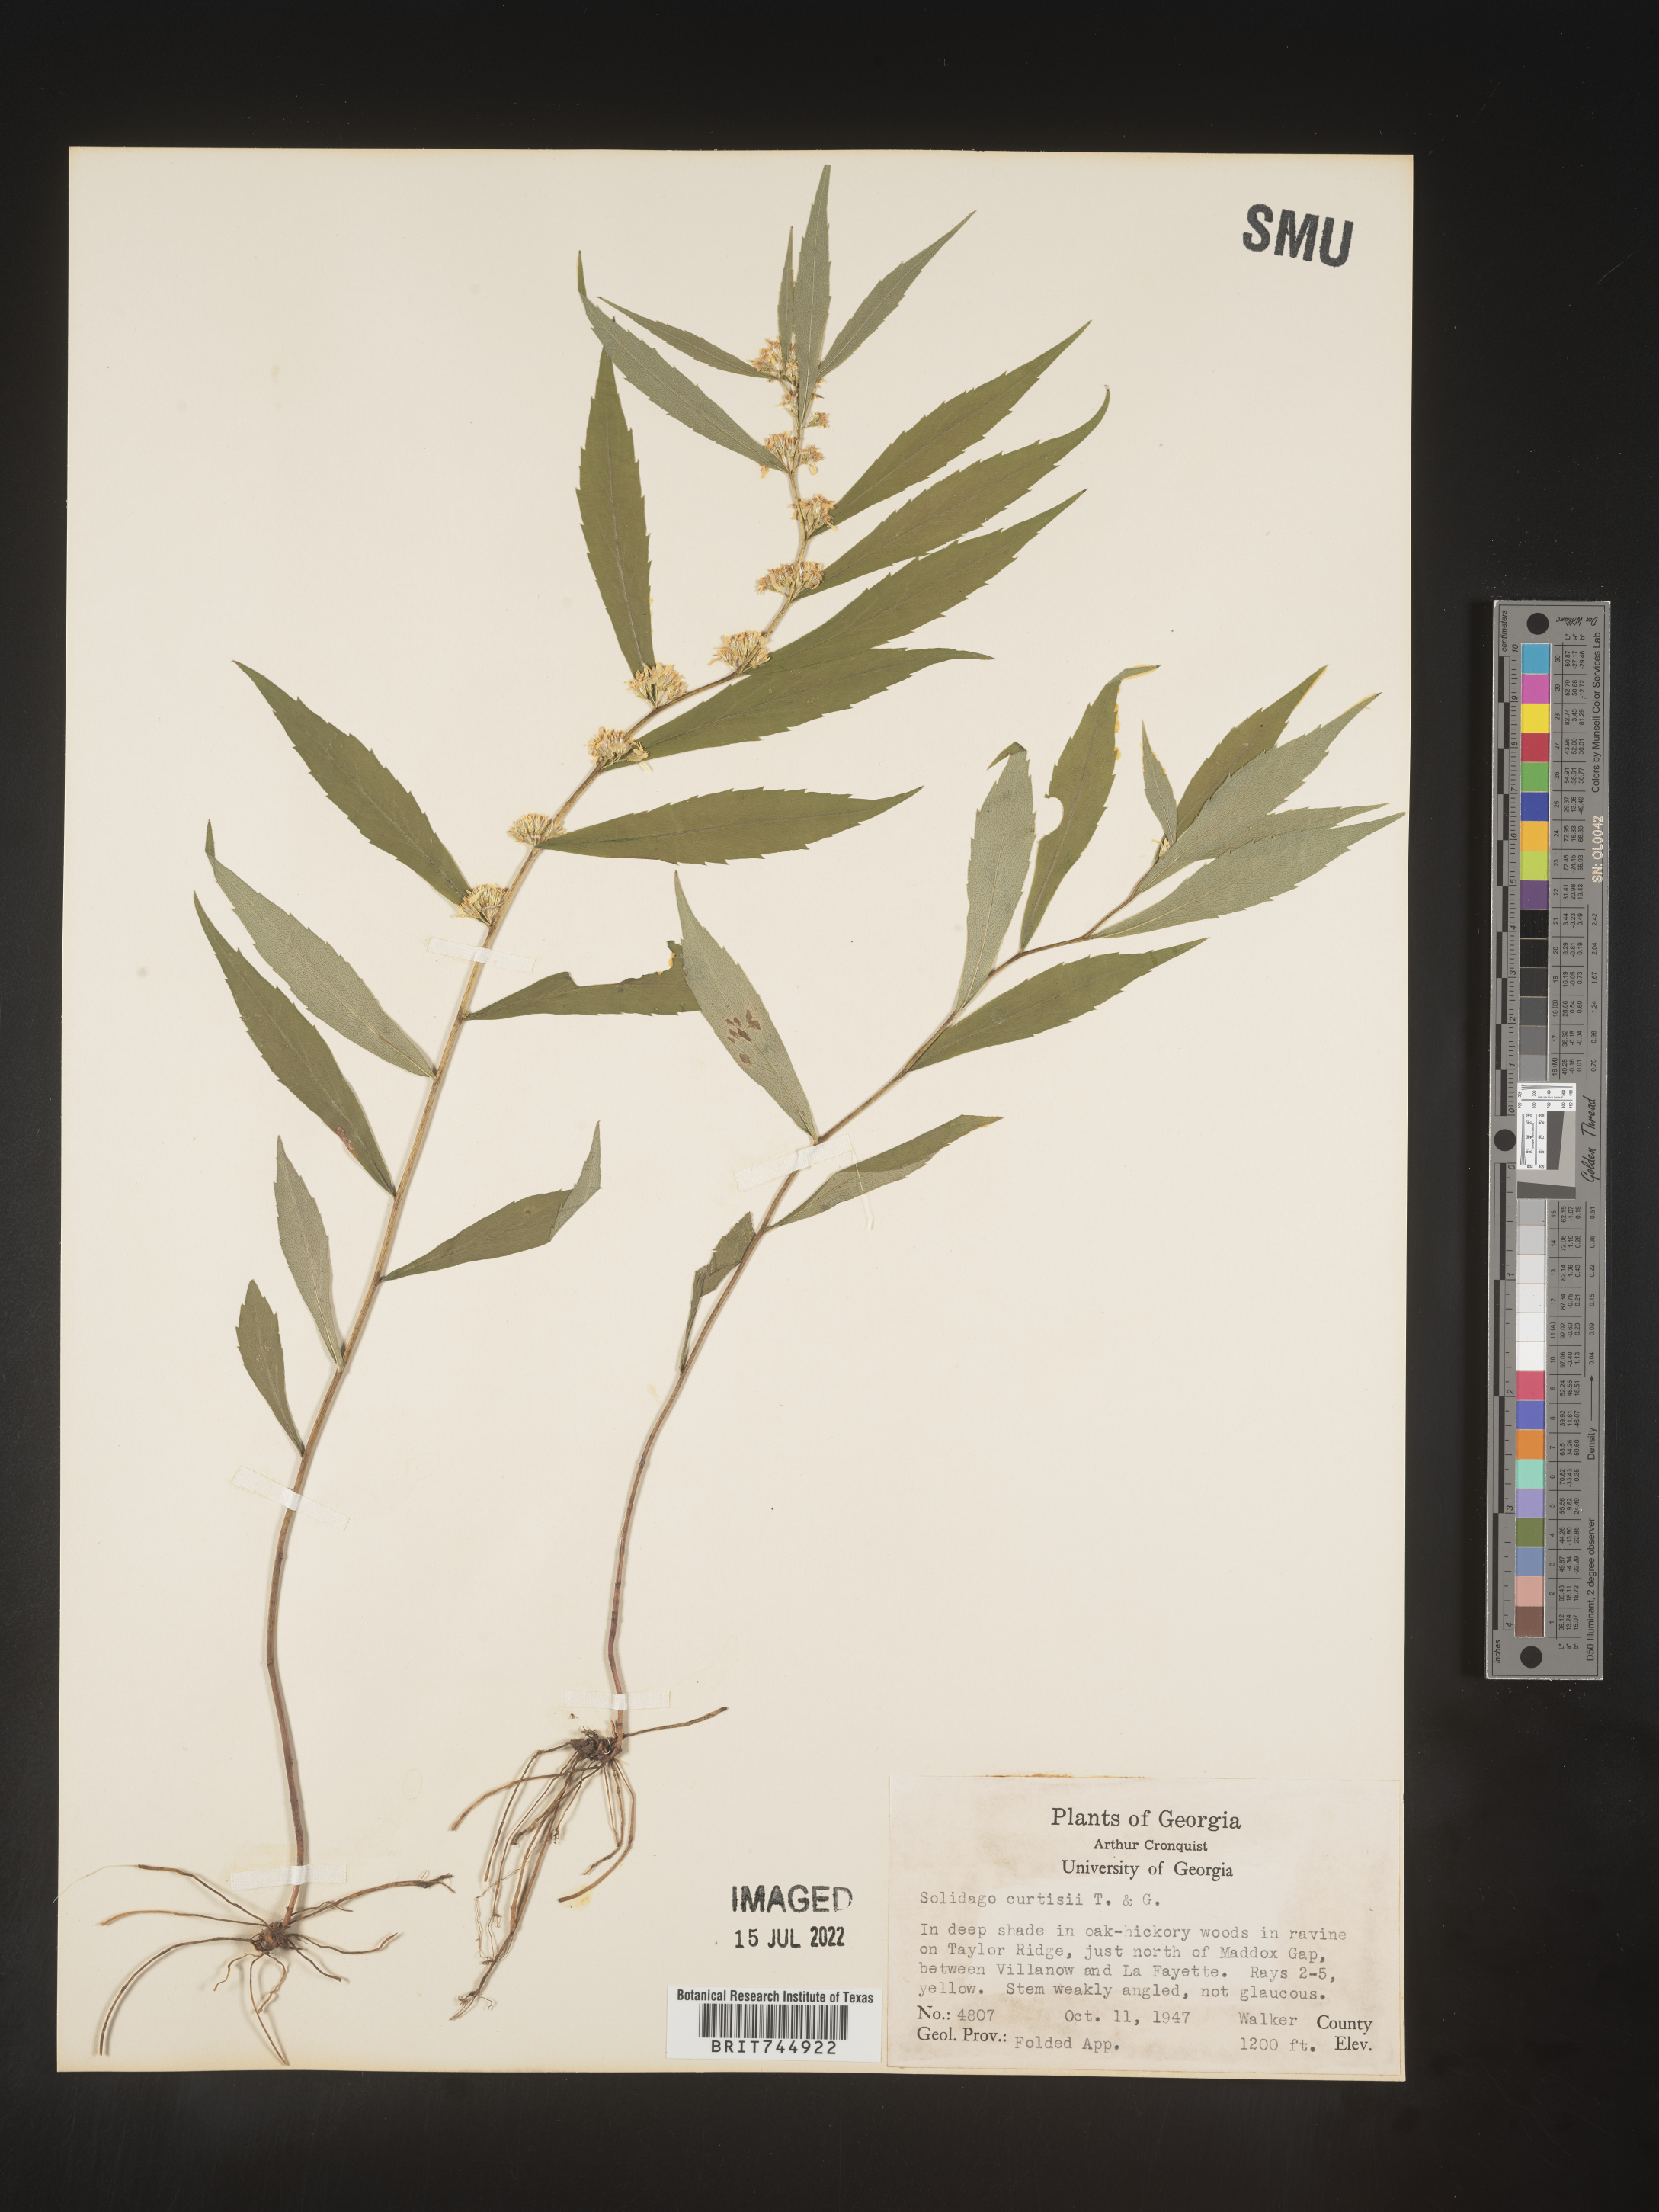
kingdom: Plantae
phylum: Tracheophyta
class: Magnoliopsida
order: Asterales
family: Asteraceae
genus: Solidago
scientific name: Solidago curtisii
